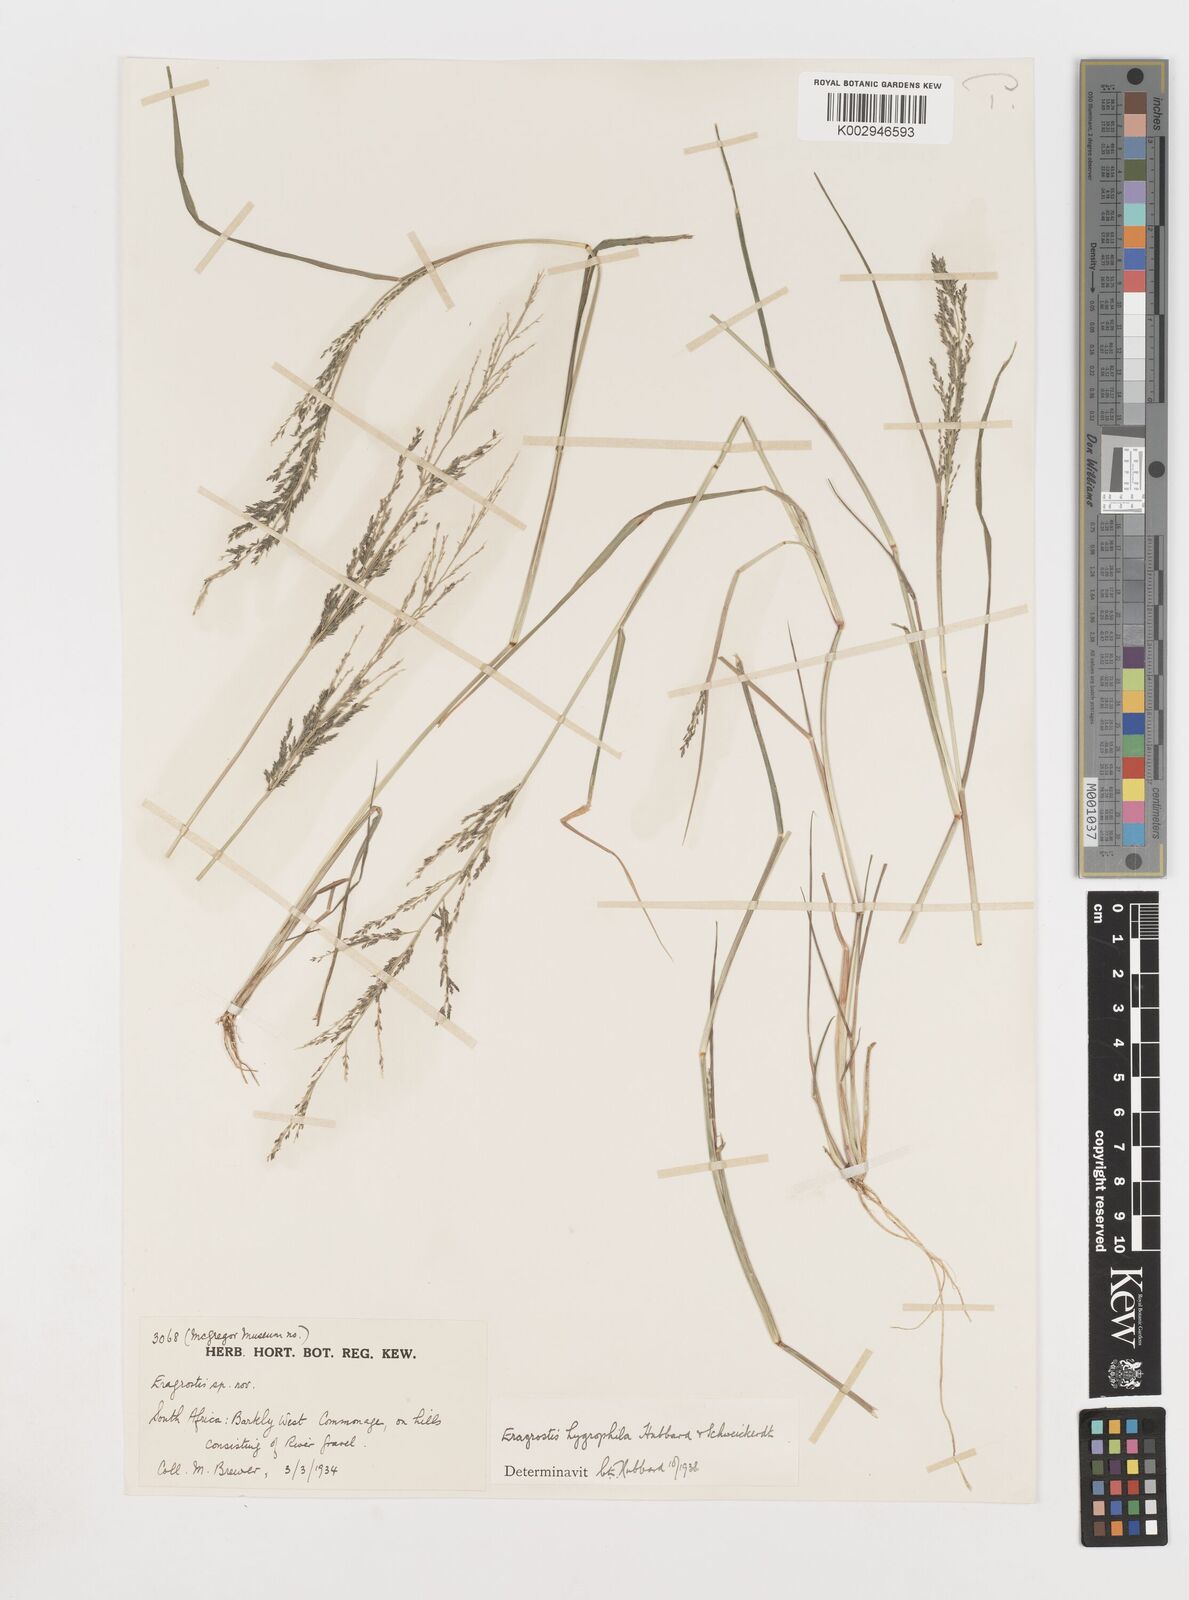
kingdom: Plantae
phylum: Tracheophyta
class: Liliopsida
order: Poales
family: Poaceae
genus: Eragrostis
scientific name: Eragrostis homomalla
